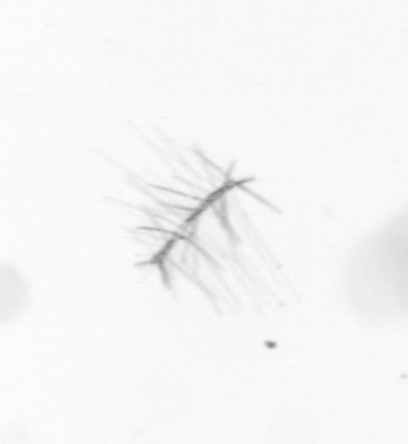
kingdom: Chromista
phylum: Ochrophyta
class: Bacillariophyceae
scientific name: Bacillariophyceae
